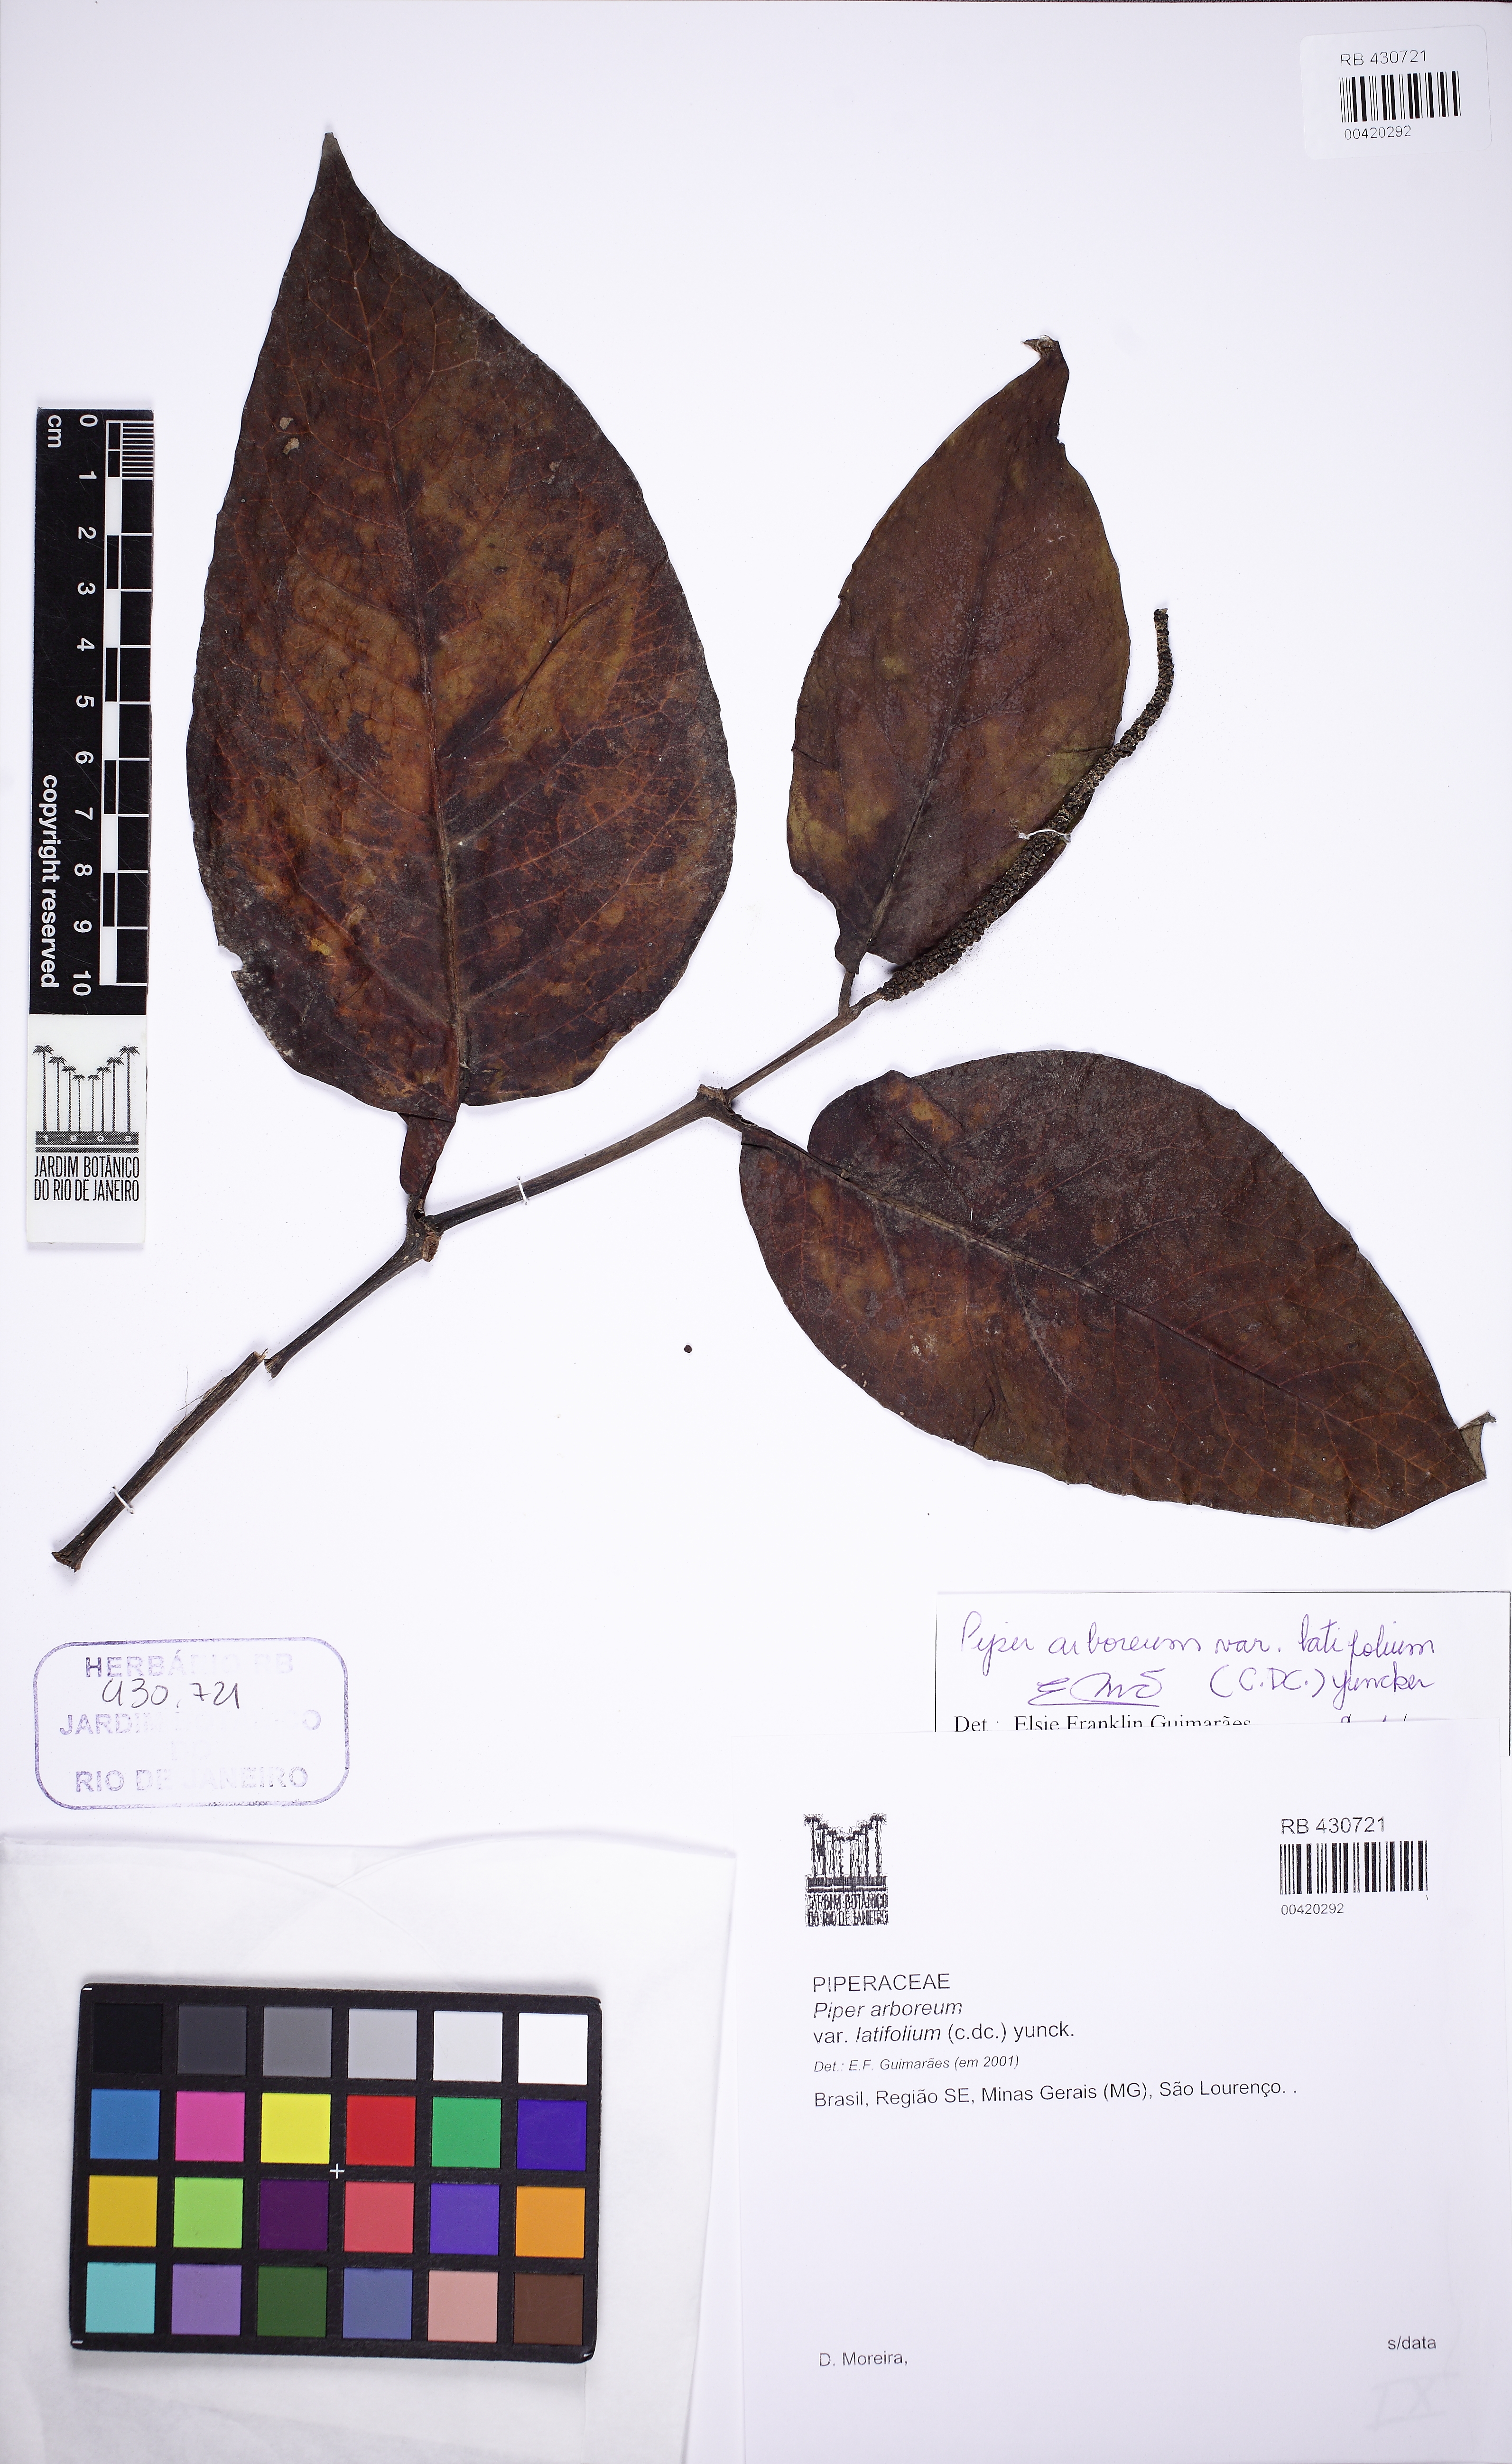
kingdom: Plantae
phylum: Tracheophyta
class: Magnoliopsida
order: Piperales
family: Piperaceae
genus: Piper
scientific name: Piper arboreum
